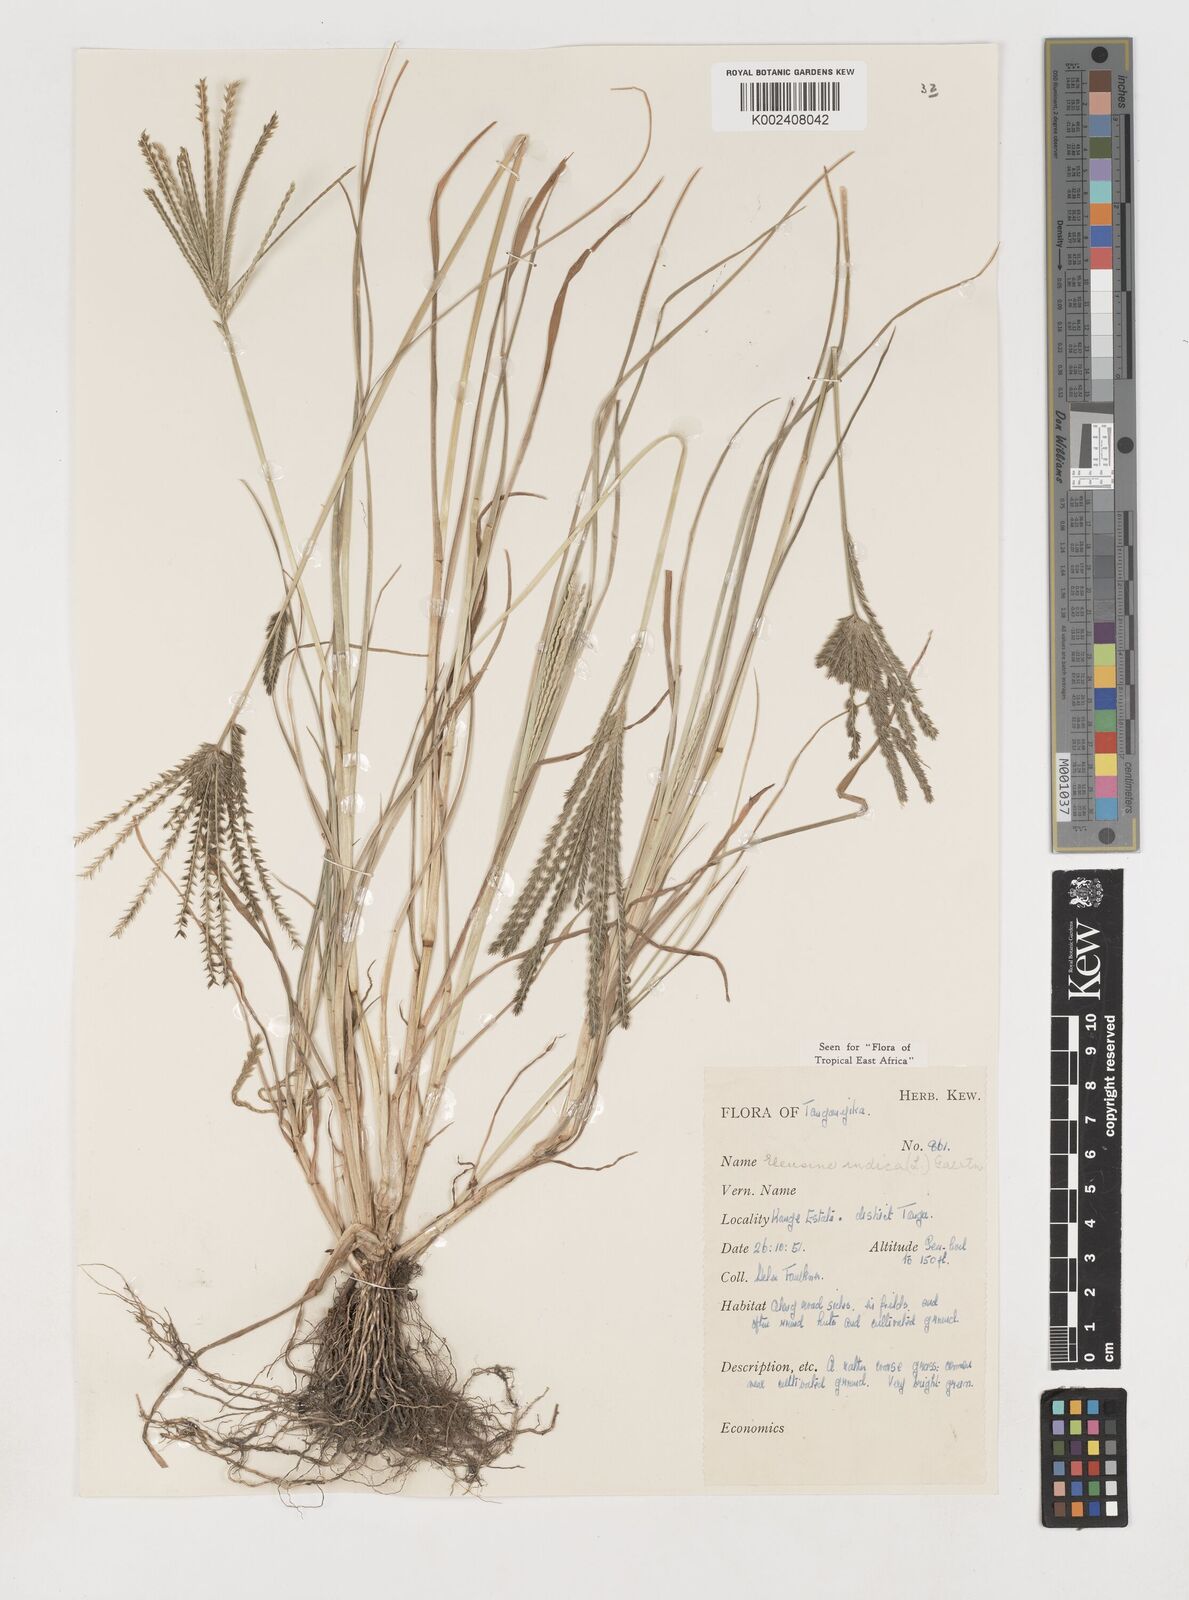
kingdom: Plantae
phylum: Tracheophyta
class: Liliopsida
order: Poales
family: Poaceae
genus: Eleusine
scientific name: Eleusine indica
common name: Yard-grass
